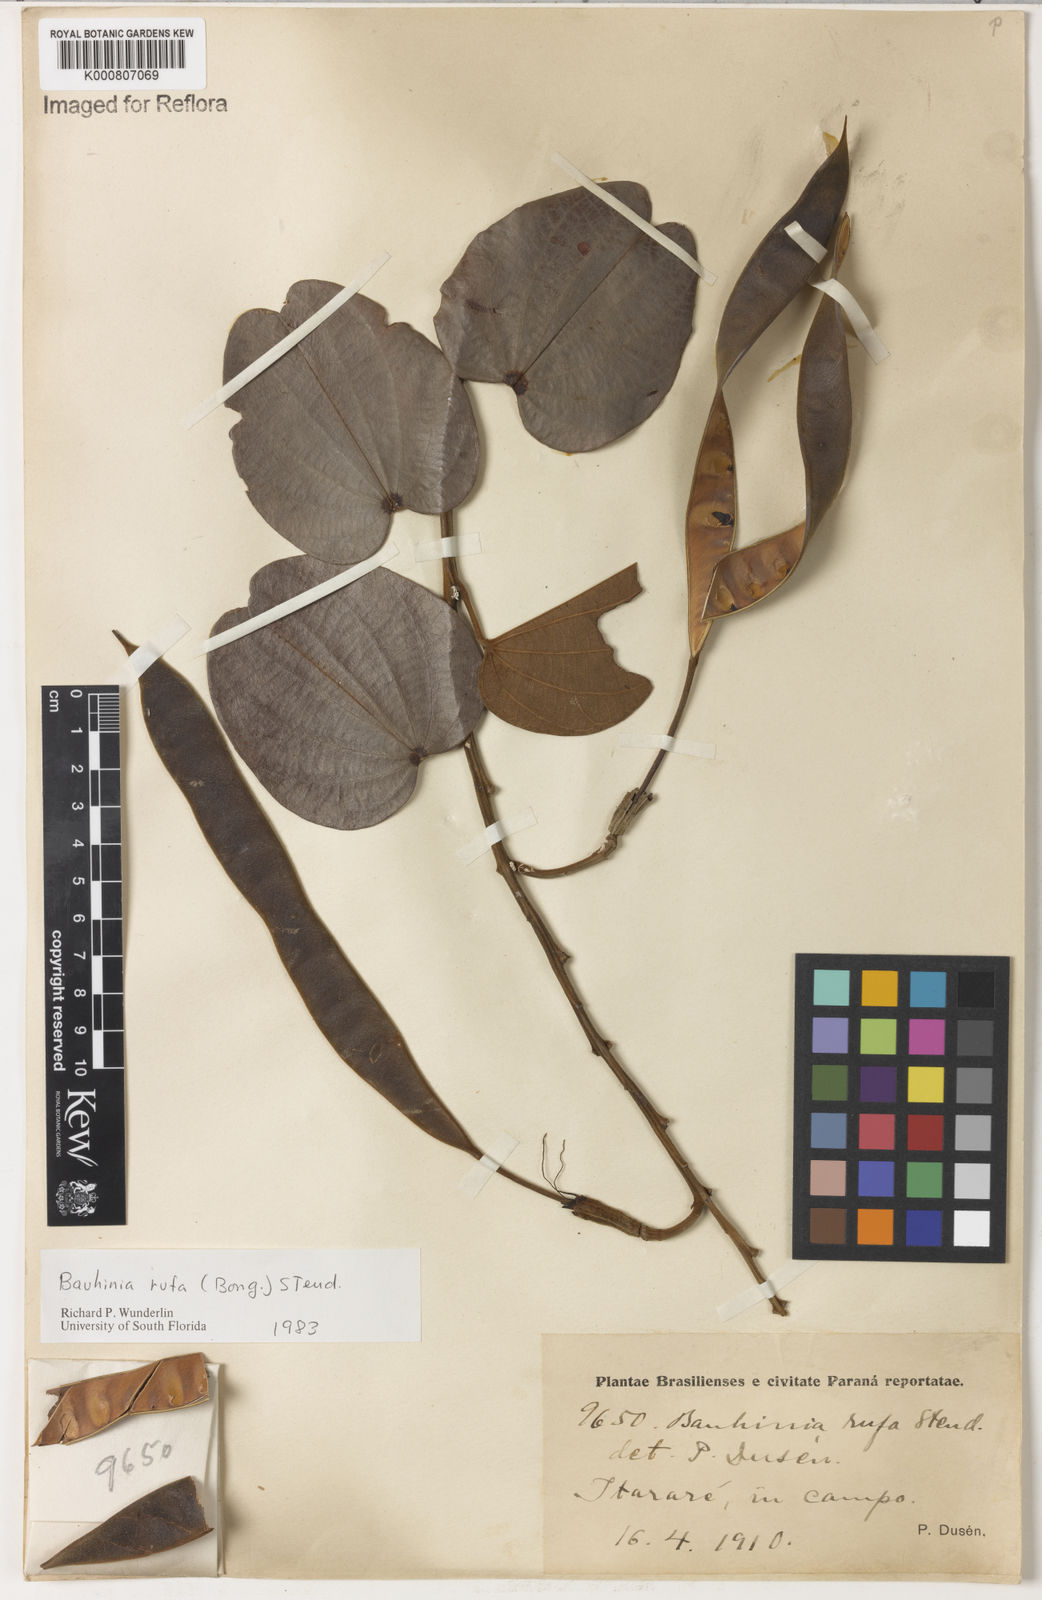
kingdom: Plantae
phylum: Tracheophyta
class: Magnoliopsida
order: Fabales
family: Fabaceae
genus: Bauhinia
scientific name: Bauhinia rufa
